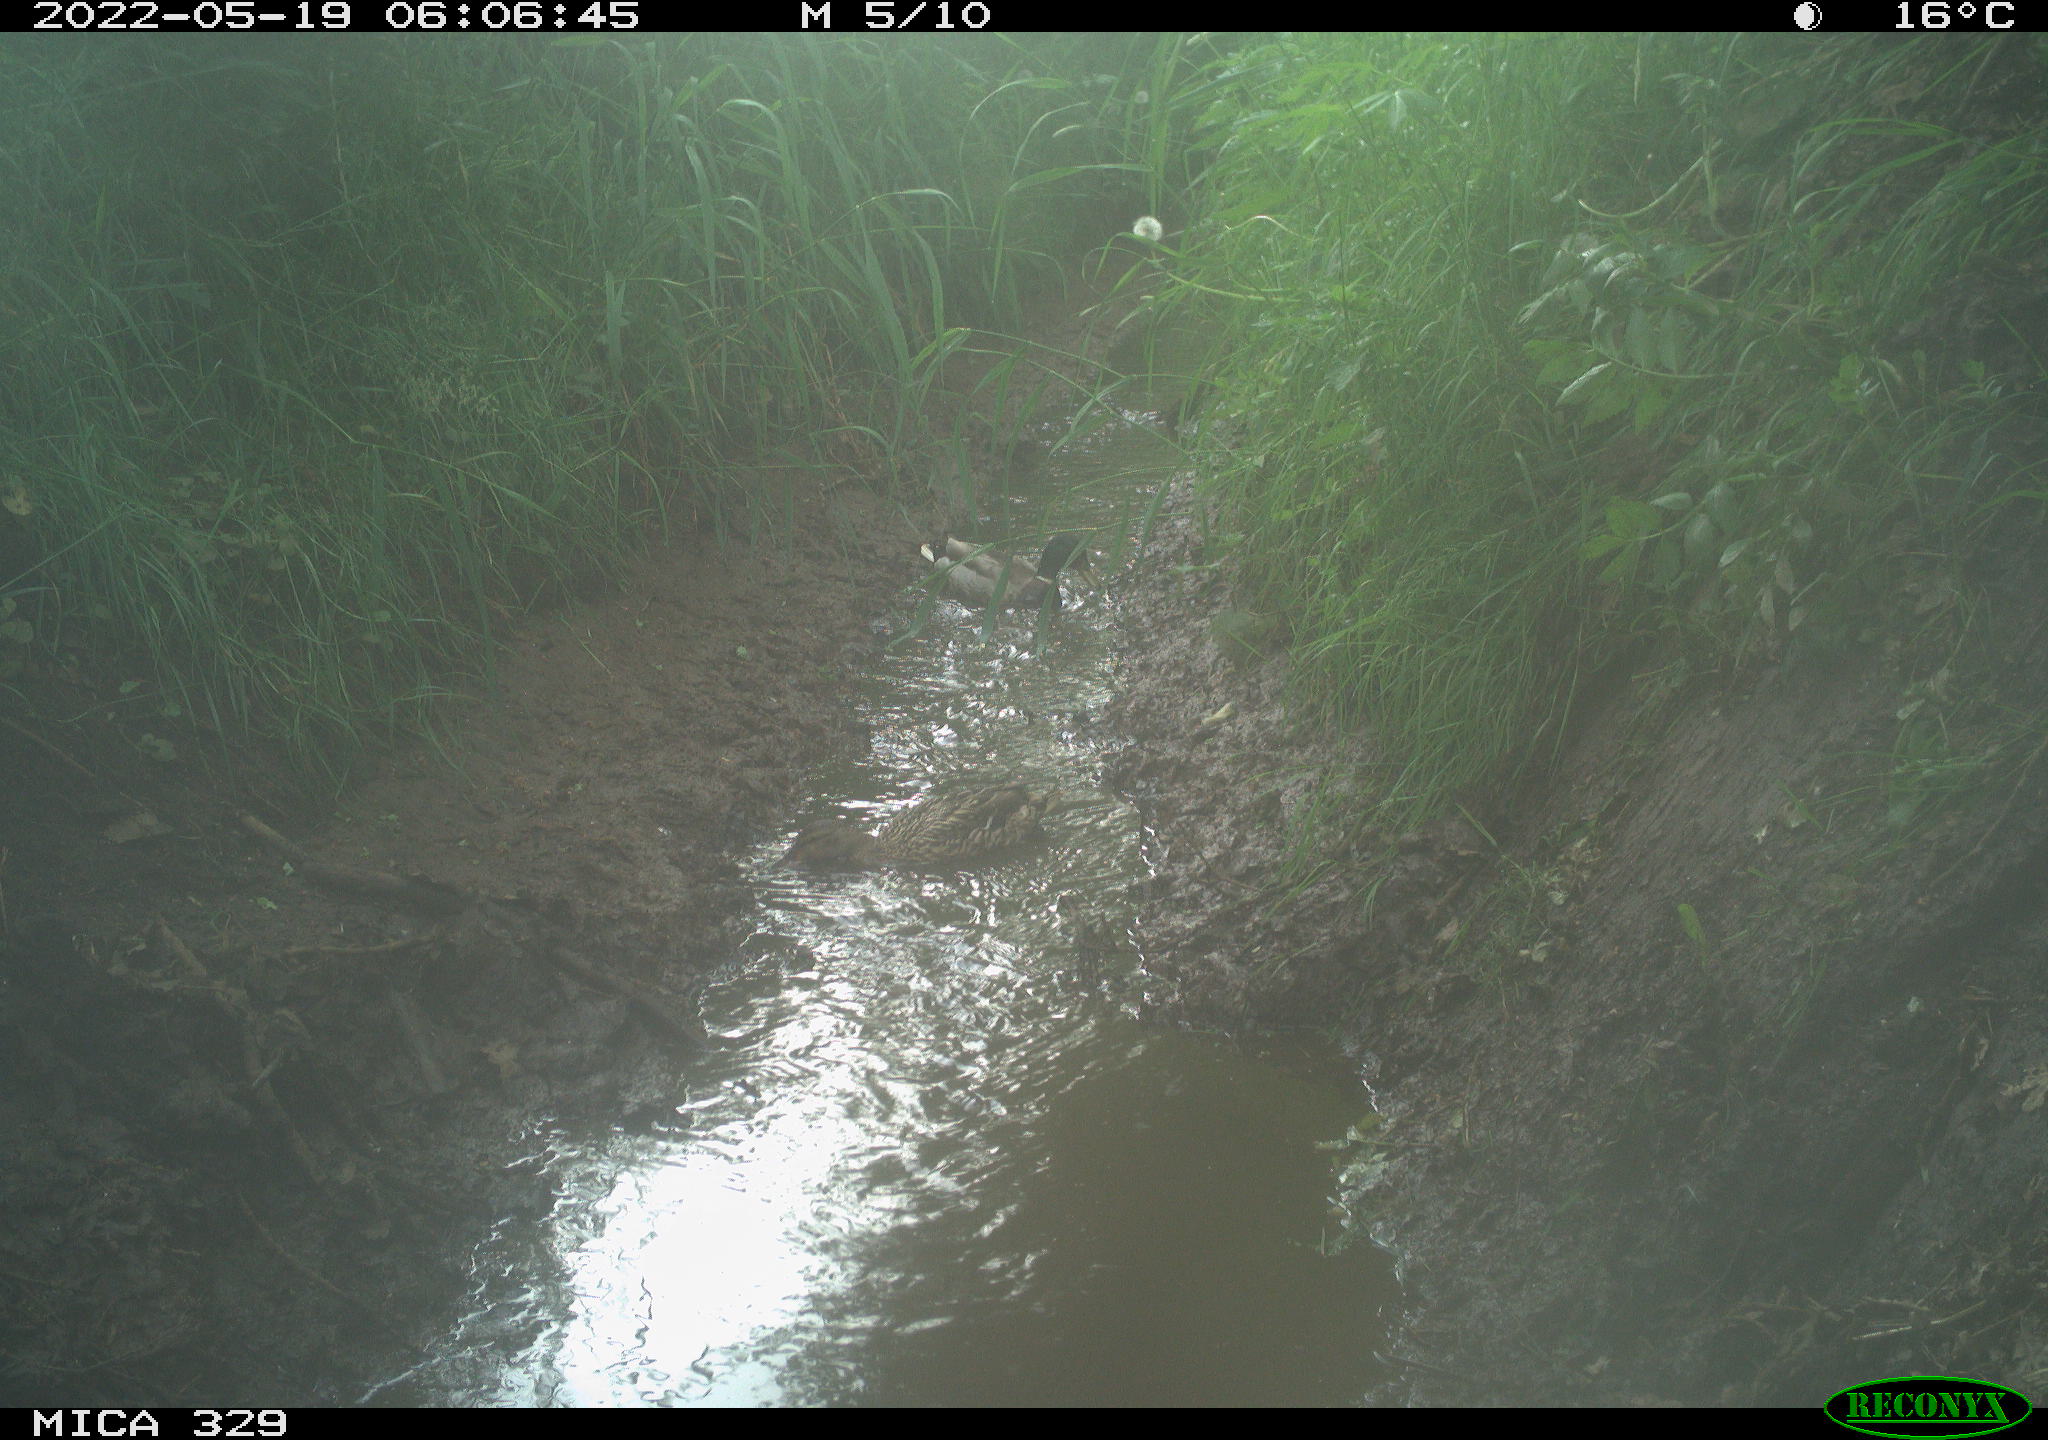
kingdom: Animalia
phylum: Chordata
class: Aves
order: Anseriformes
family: Anatidae
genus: Anas
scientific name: Anas platyrhynchos
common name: Mallard
